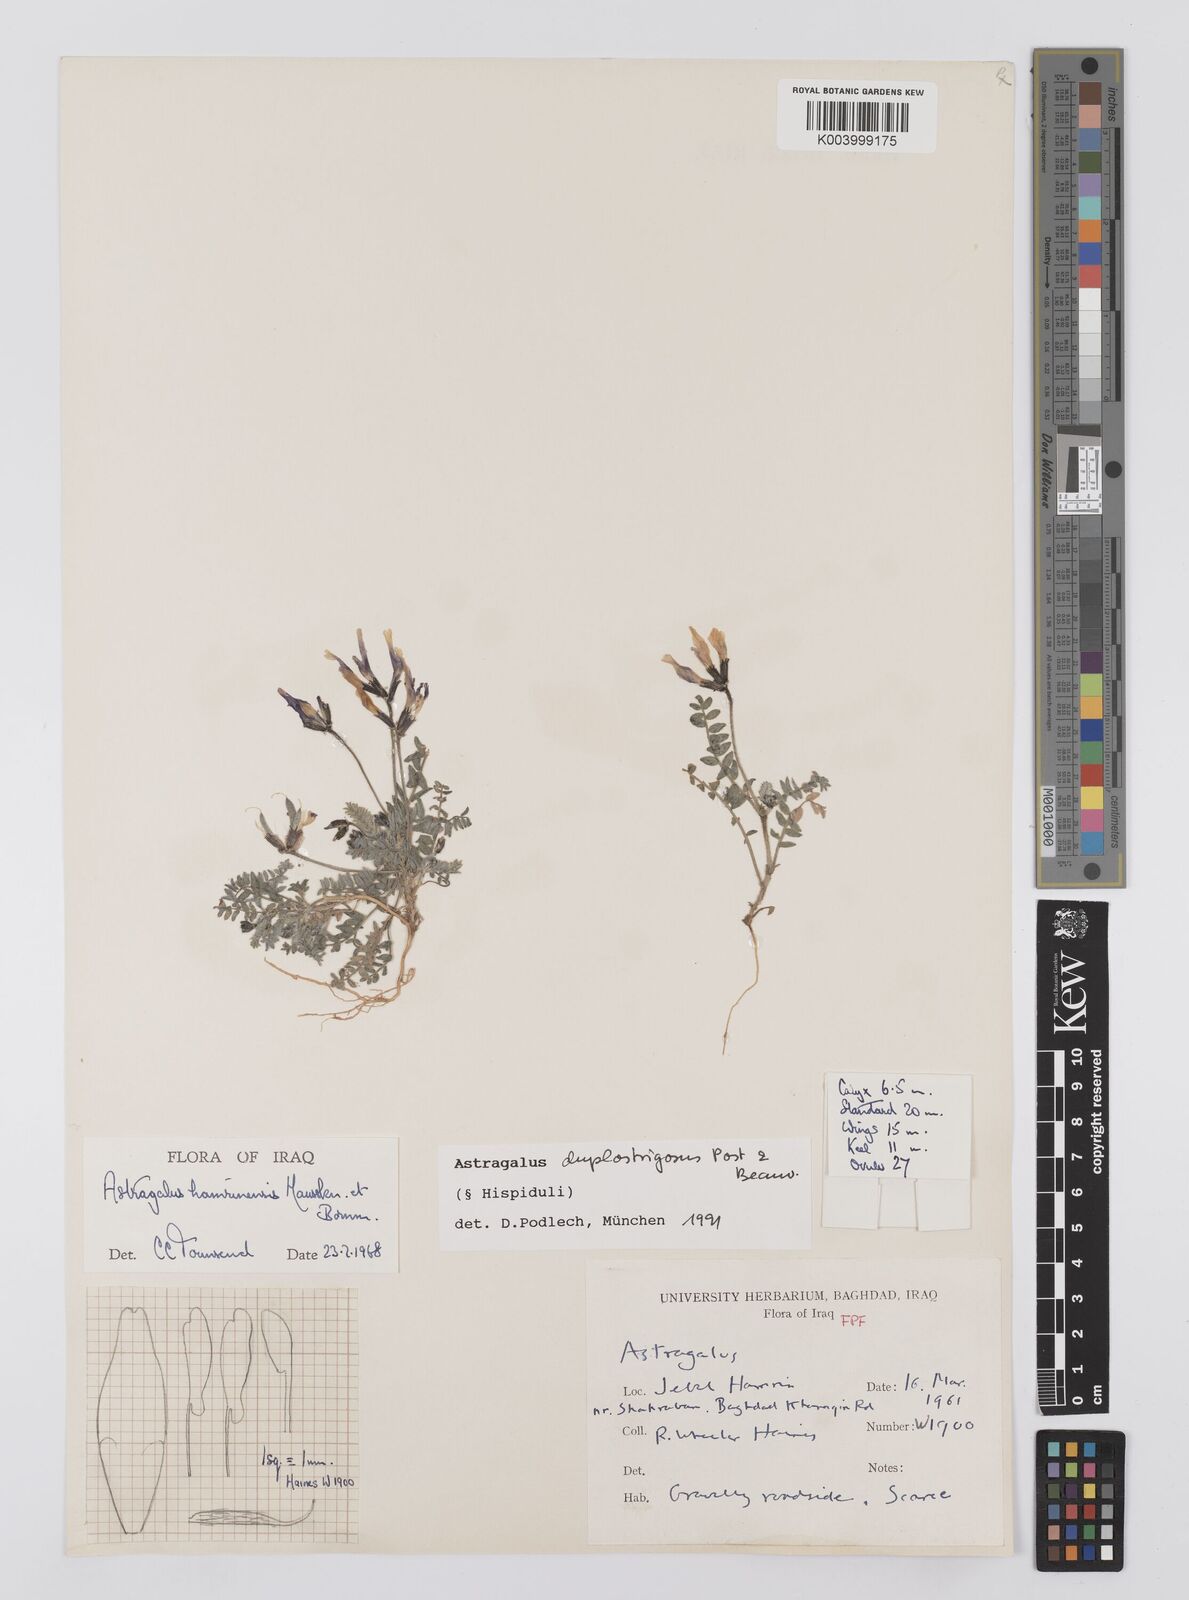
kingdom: Plantae
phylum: Tracheophyta
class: Magnoliopsida
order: Fabales
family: Fabaceae
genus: Astragalus
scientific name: Astragalus duplostrigosus
